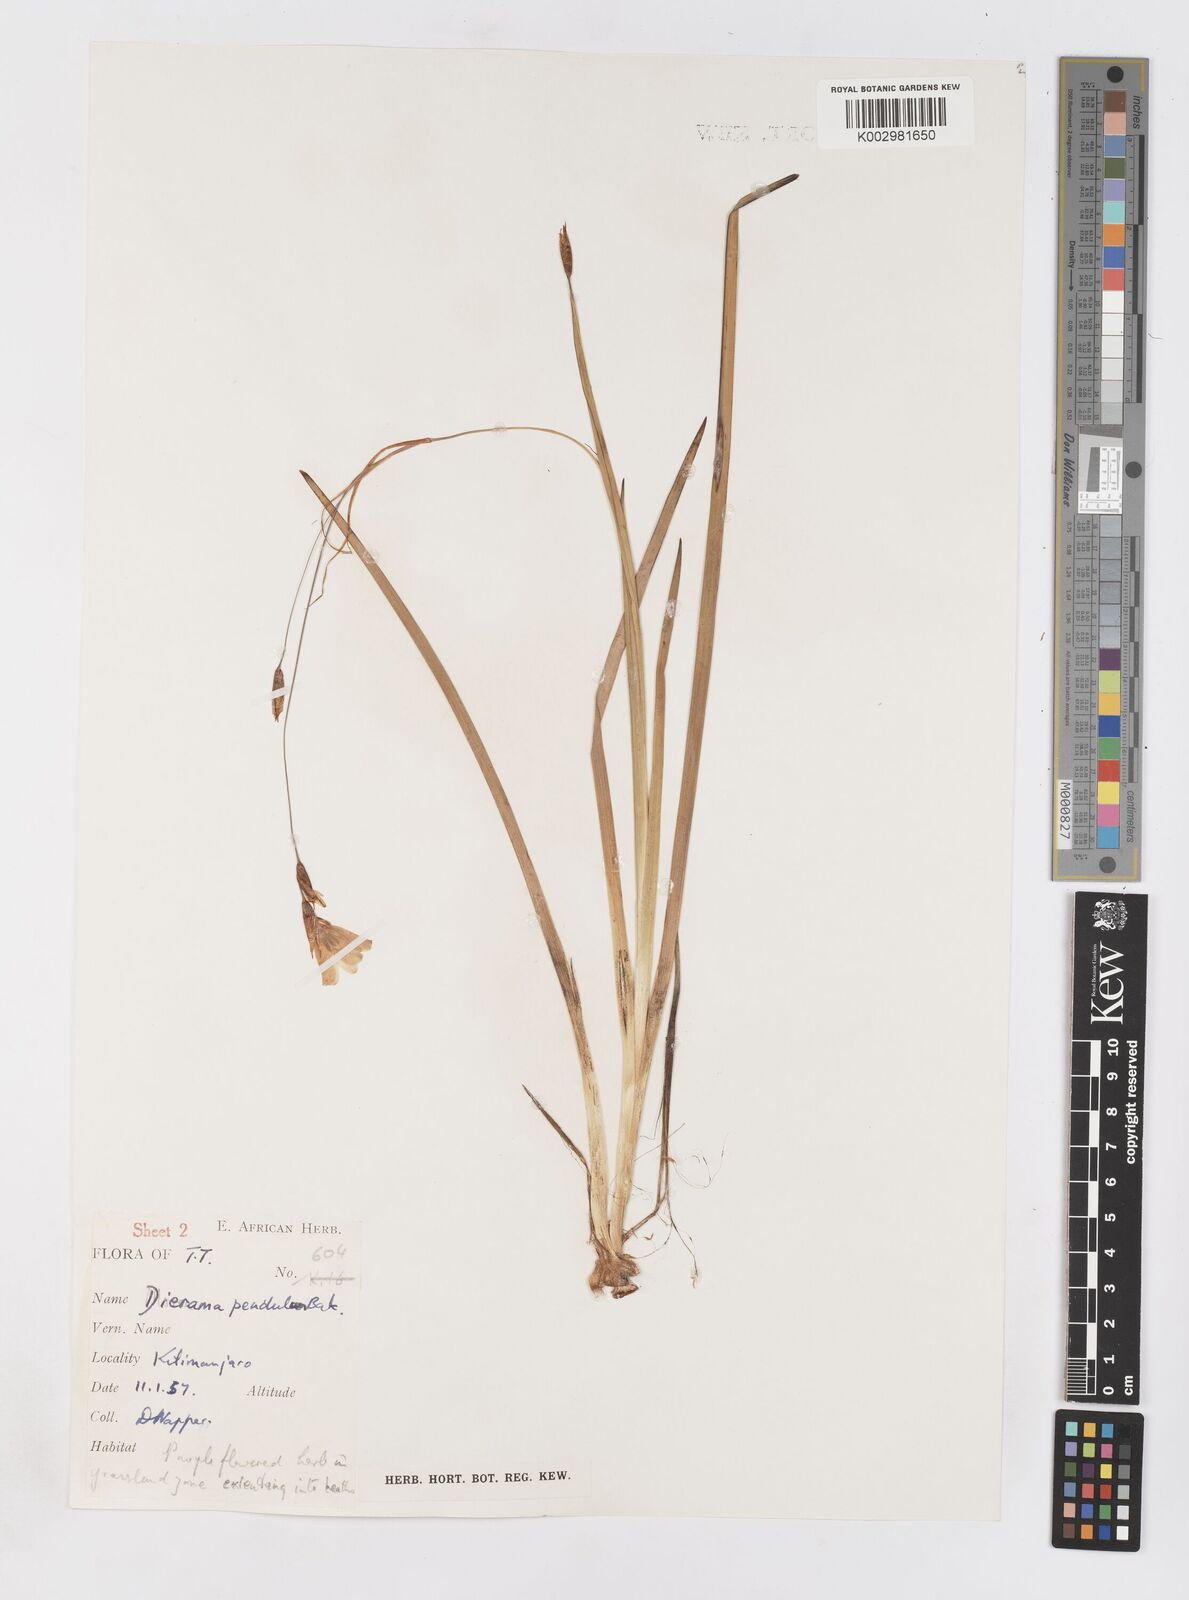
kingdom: Plantae
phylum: Tracheophyta
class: Liliopsida
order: Asparagales
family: Iridaceae
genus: Dierama
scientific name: Dierama cupuliflorum
